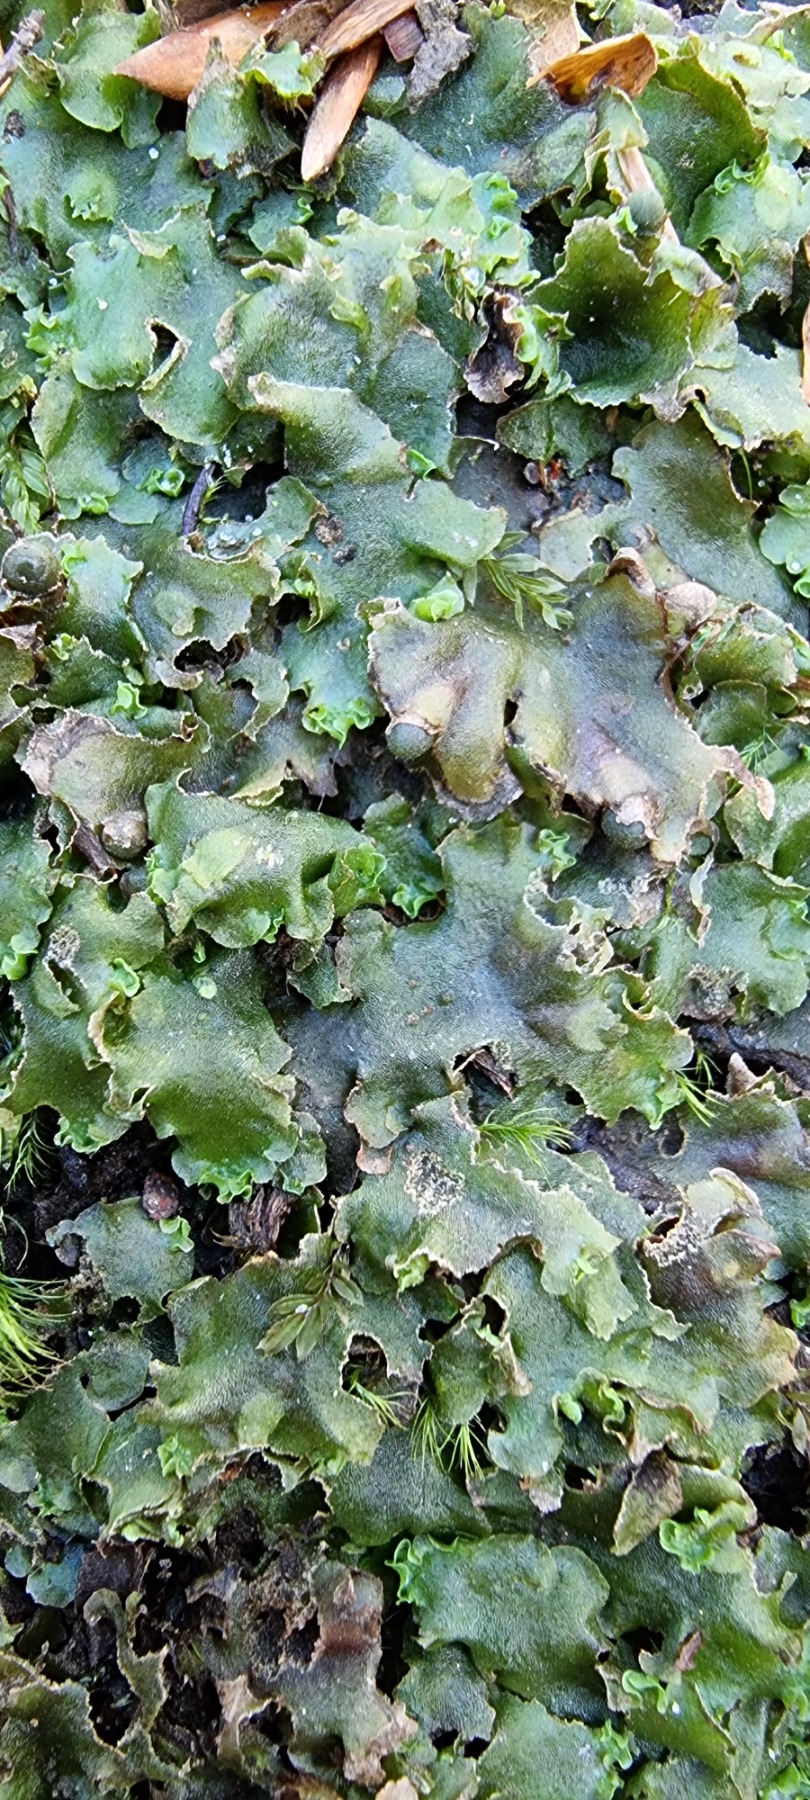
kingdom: Plantae
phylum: Marchantiophyta
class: Jungermanniopsida
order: Pelliales
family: Pelliaceae
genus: Pellia
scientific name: Pellia epiphylla
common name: Enbo ribbeløv
